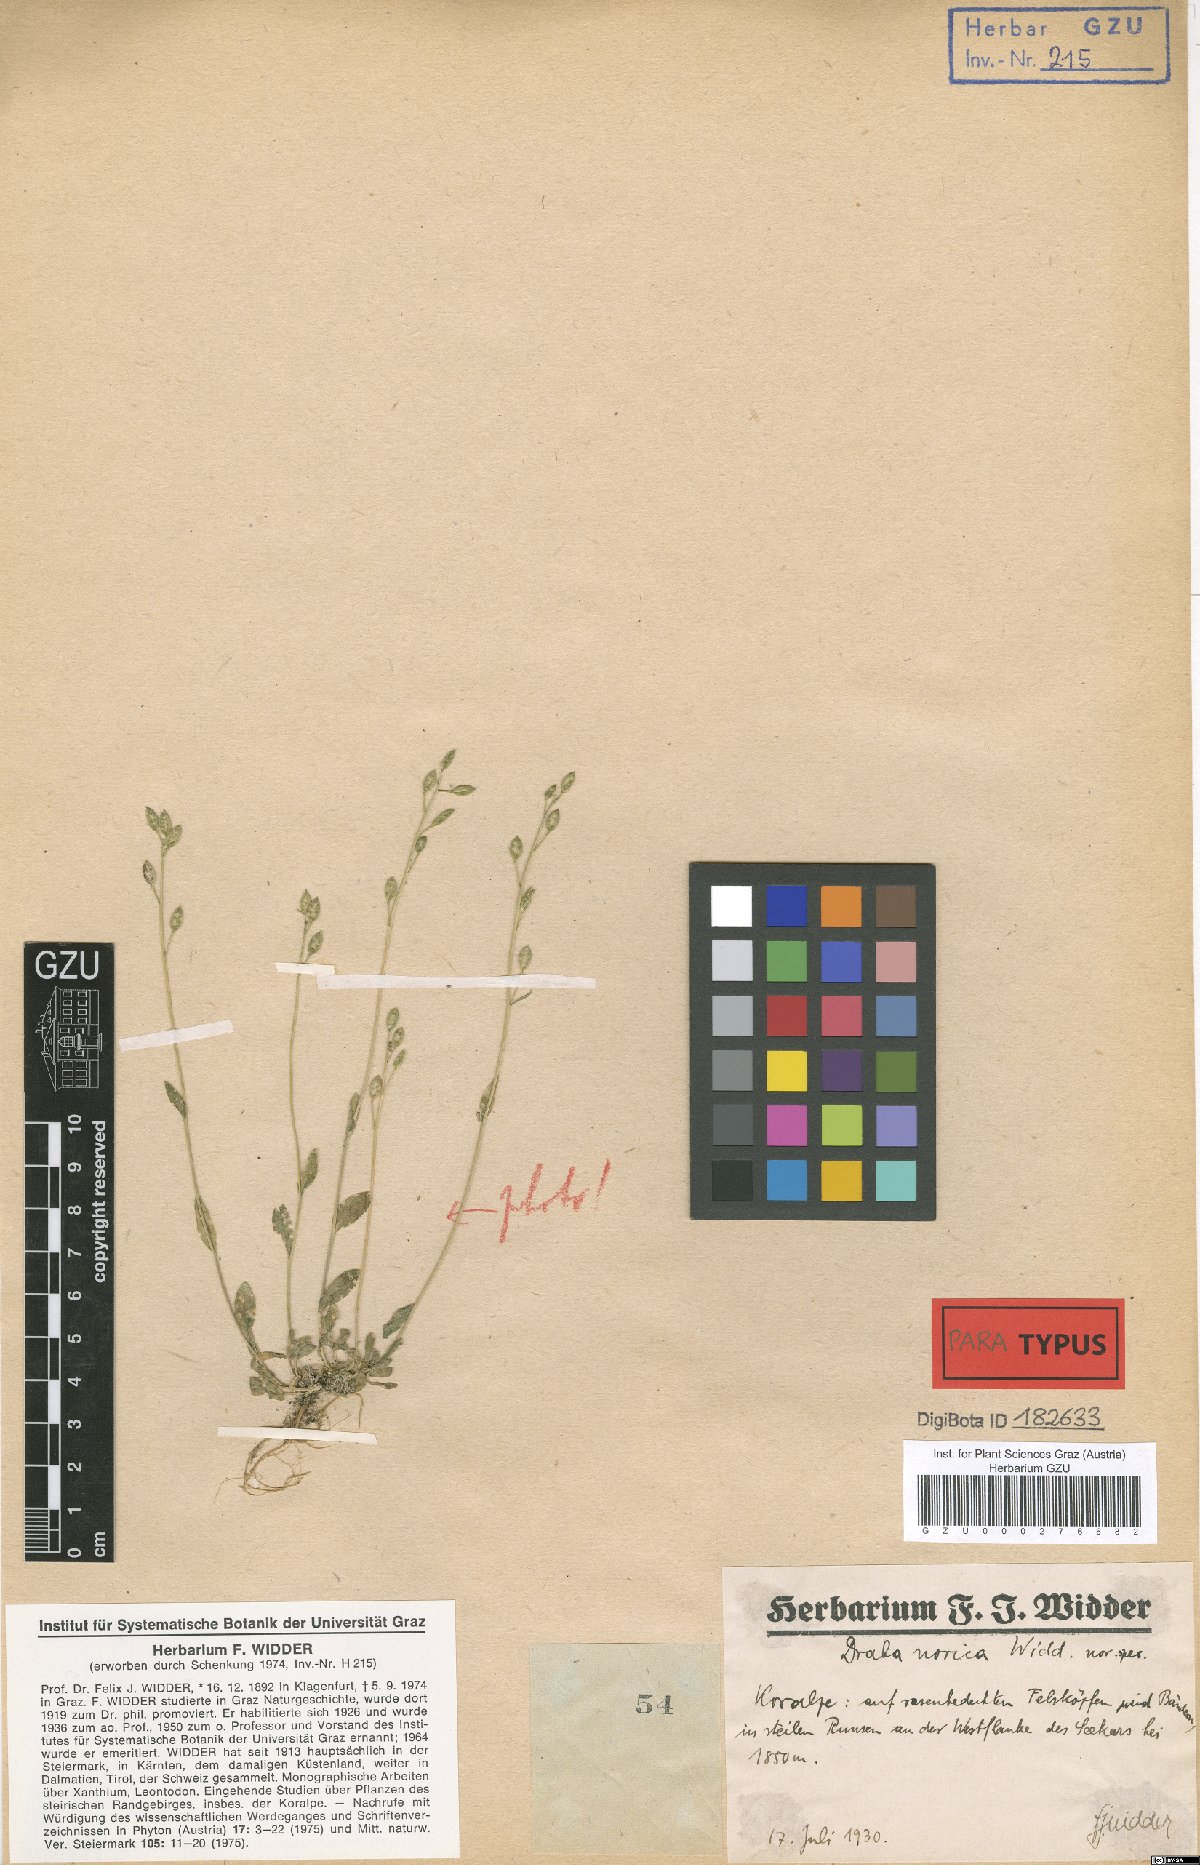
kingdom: Plantae
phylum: Tracheophyta
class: Magnoliopsida
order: Brassicales
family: Brassicaceae
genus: Draba
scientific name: Draba pacheri
